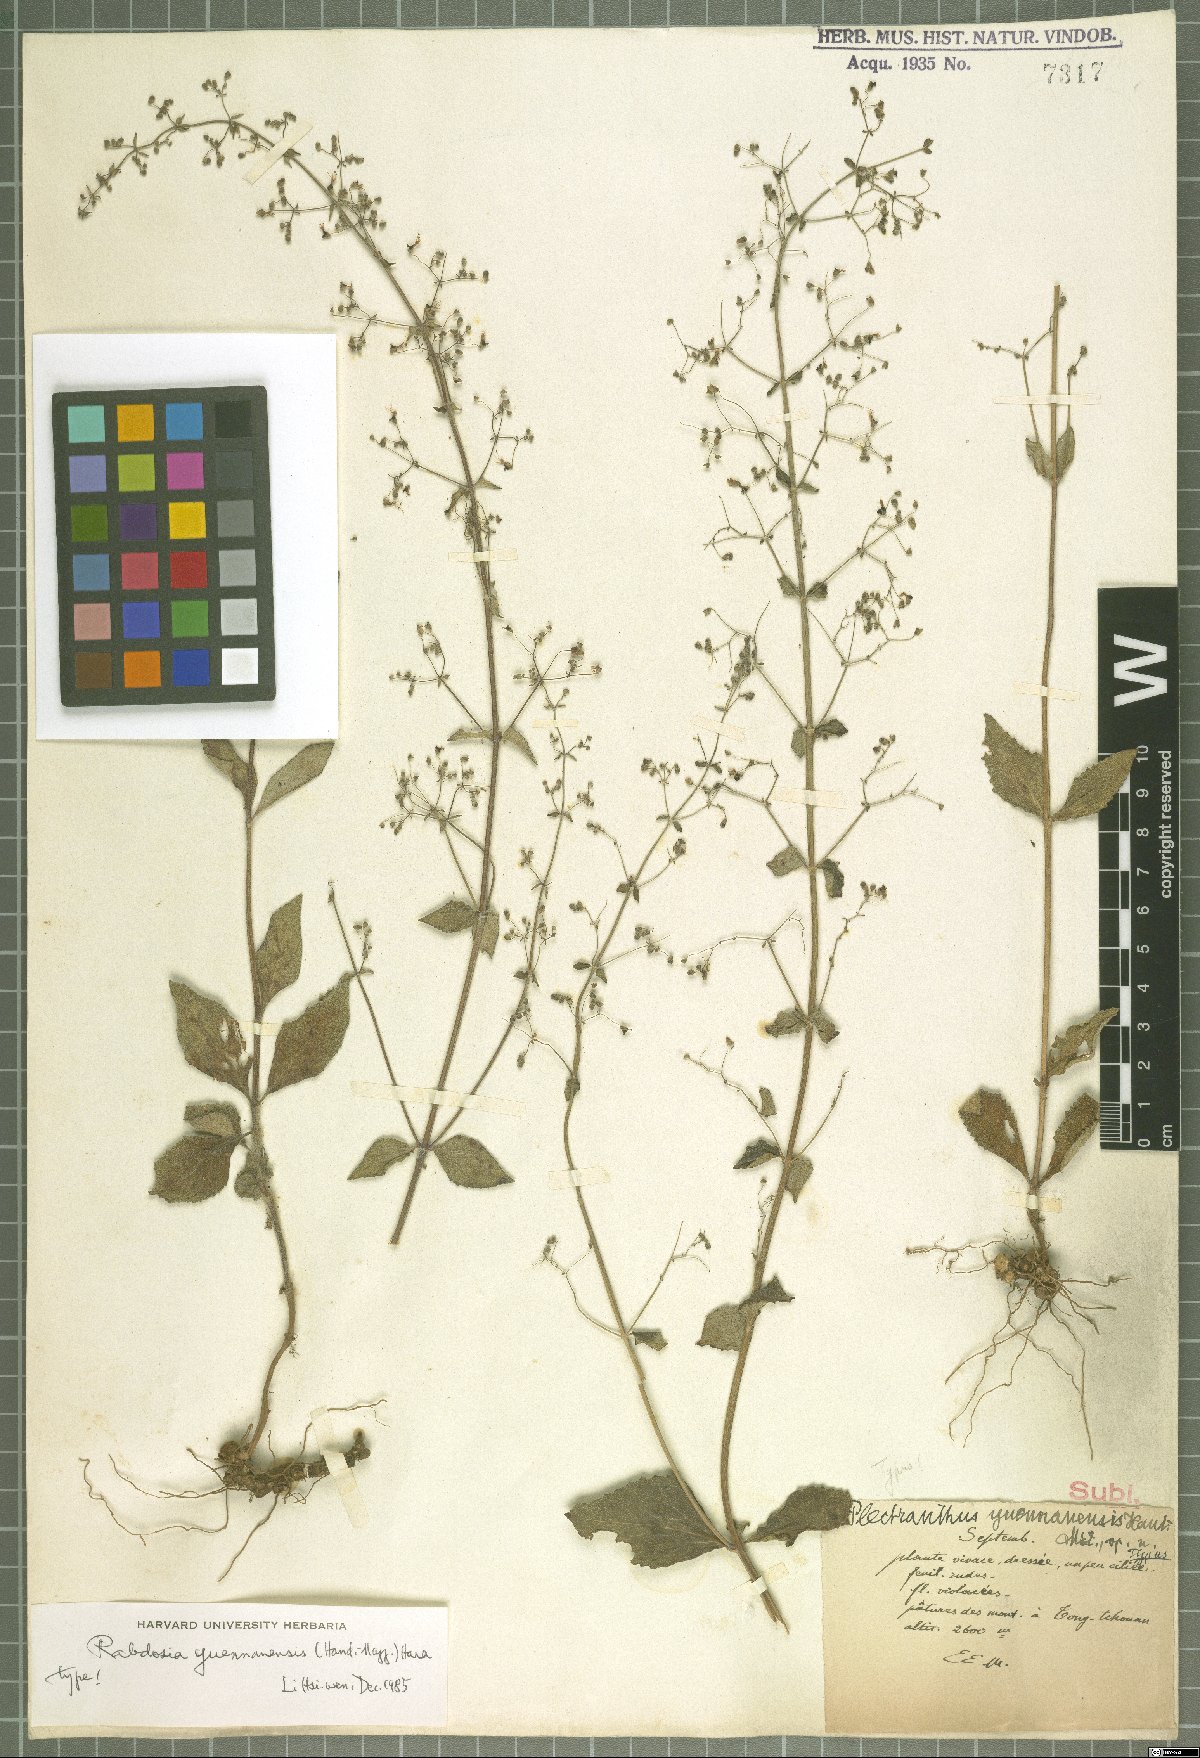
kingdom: Plantae
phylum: Tracheophyta
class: Magnoliopsida
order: Lamiales
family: Lamiaceae
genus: Isodon
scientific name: Isodon yuennanensis
